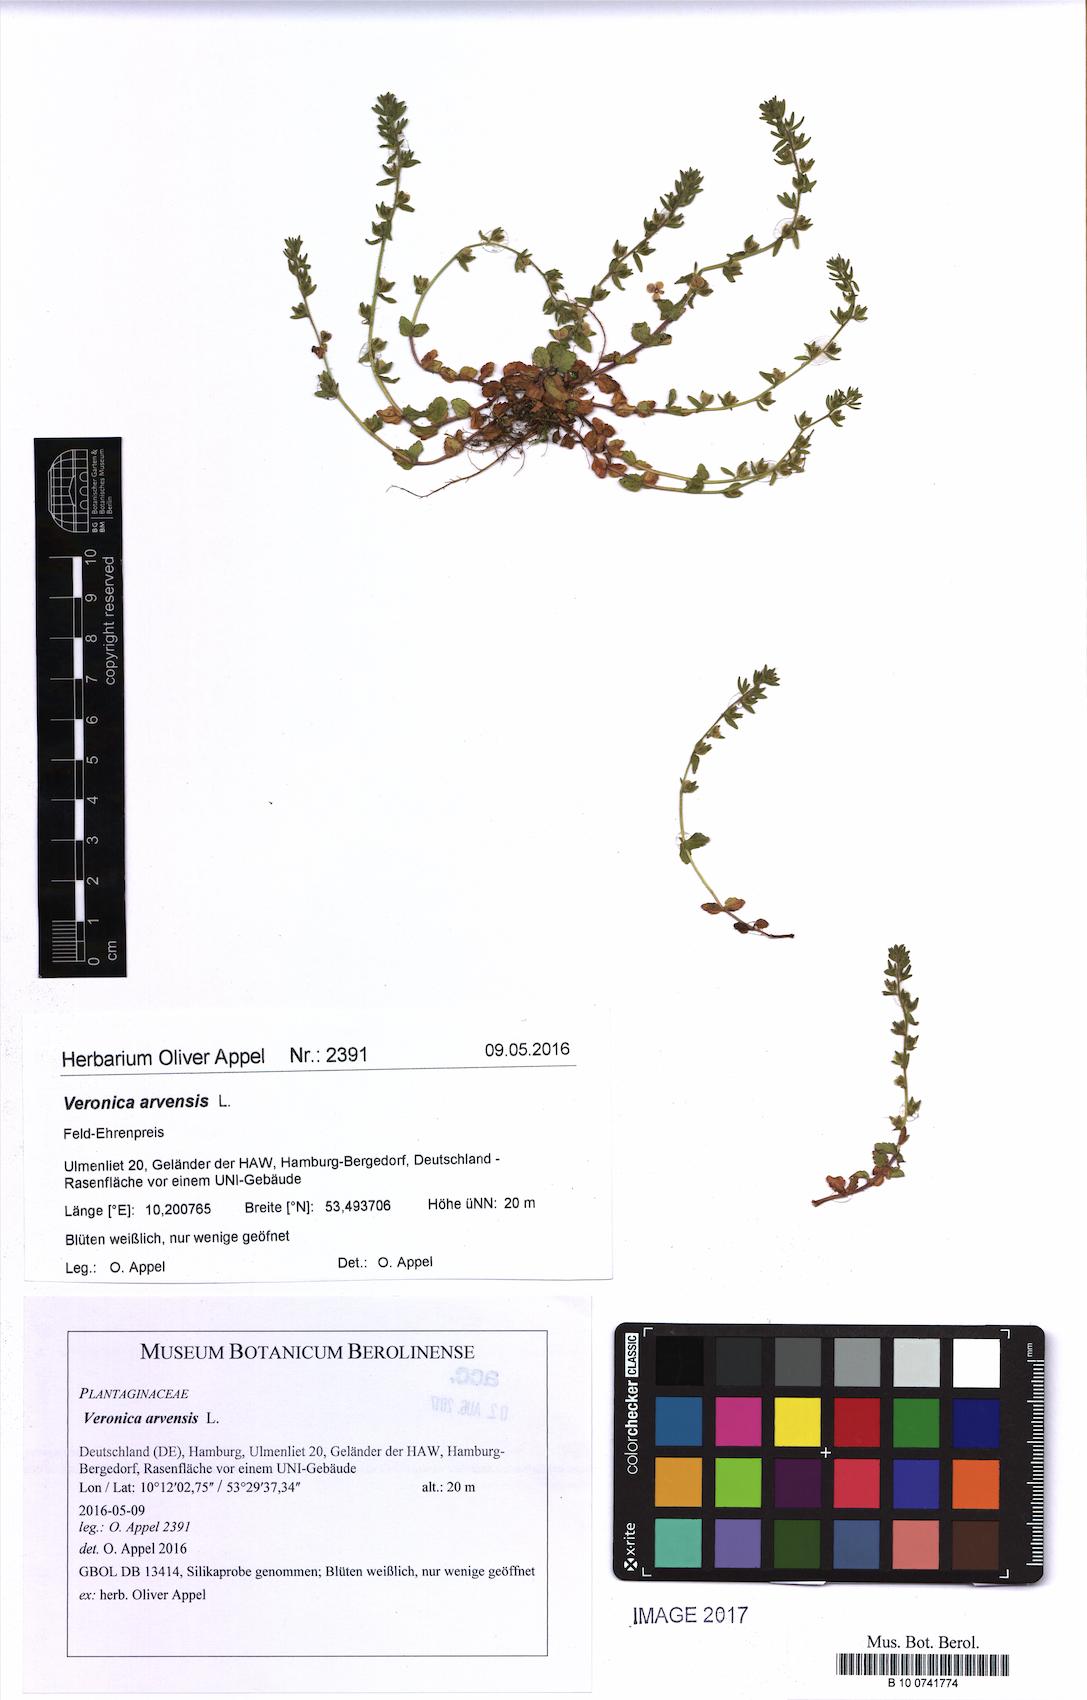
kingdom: Plantae
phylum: Tracheophyta
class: Magnoliopsida
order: Lamiales
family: Plantaginaceae
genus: Veronica
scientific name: Veronica arvensis
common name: Corn speedwell
